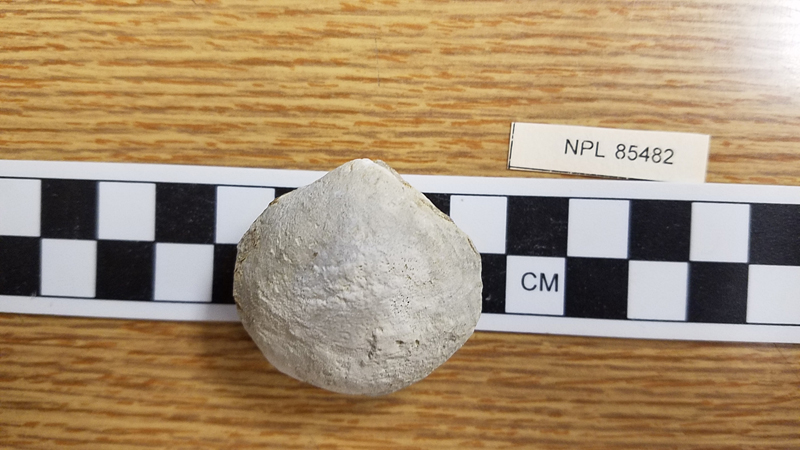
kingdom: Animalia
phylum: Mollusca
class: Bivalvia
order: Cardiida
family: Cardiidae
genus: Protocardia
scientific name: Protocardia
